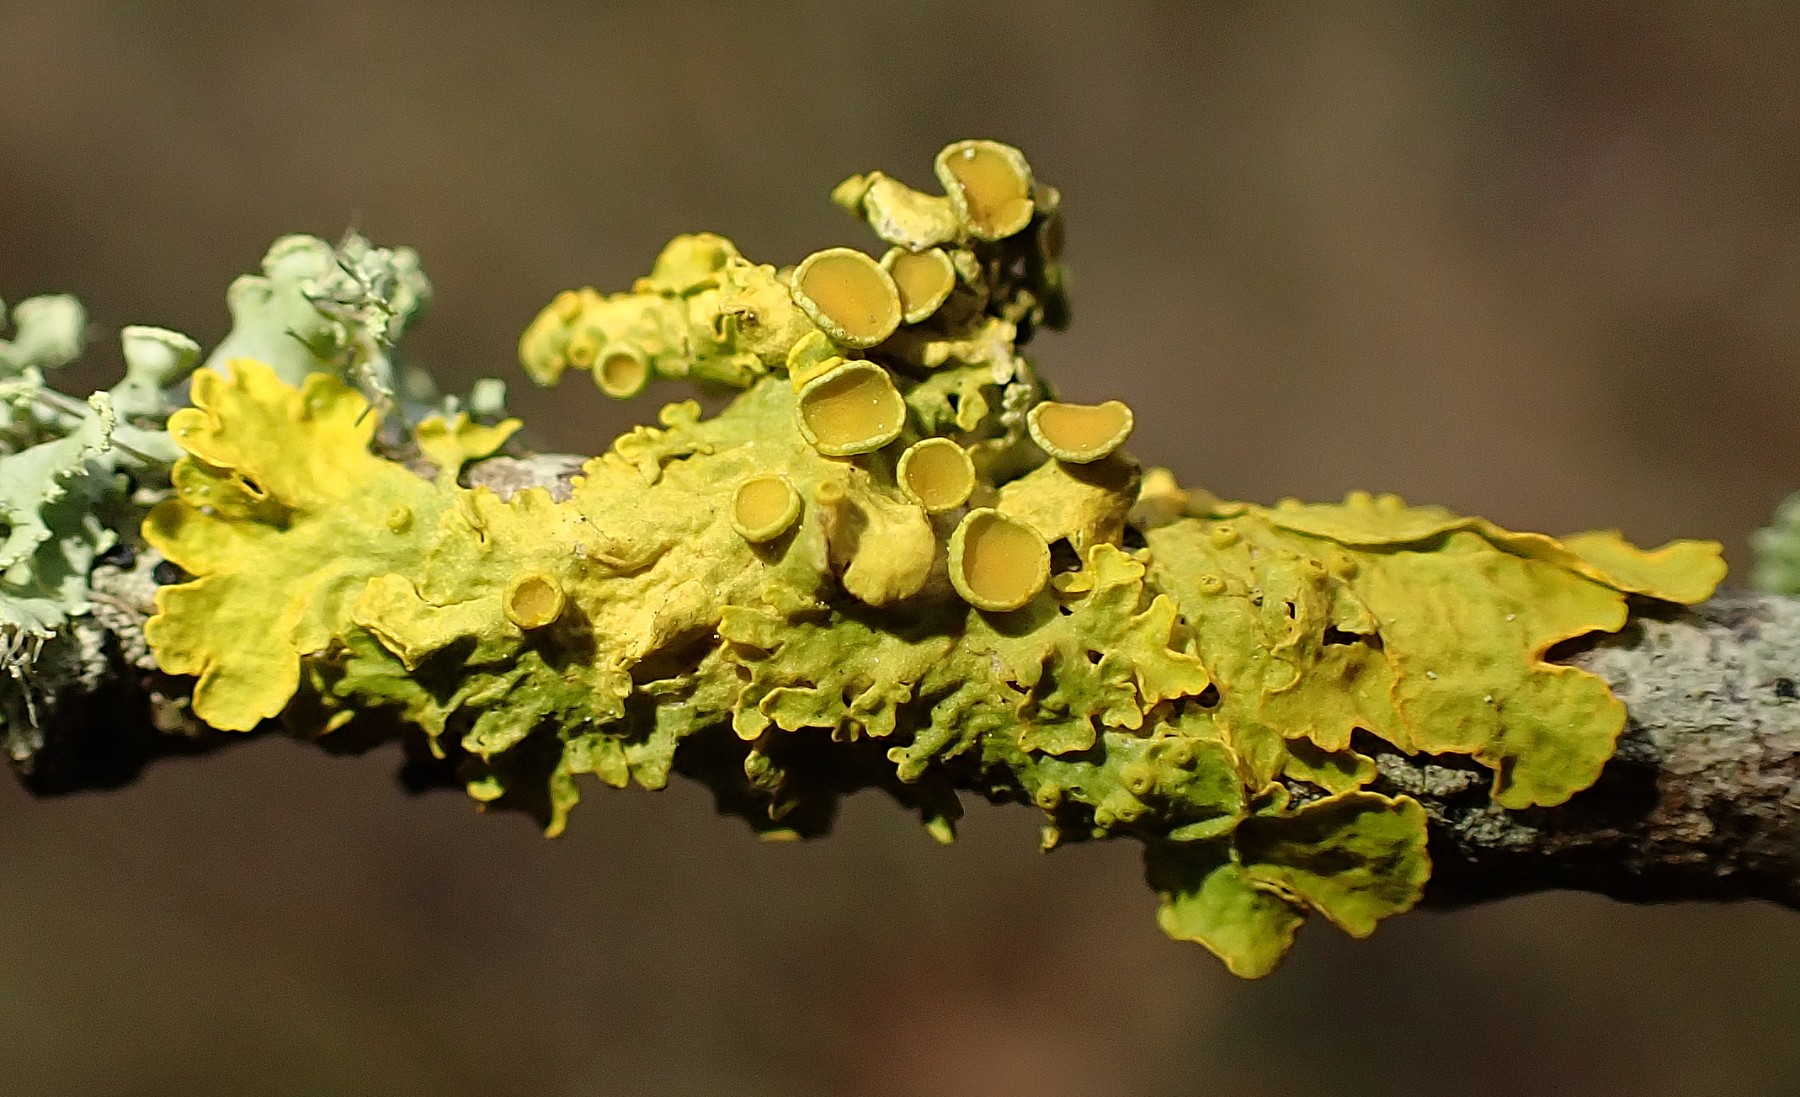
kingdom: Fungi
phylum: Ascomycota
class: Lecanoromycetes
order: Teloschistales
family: Teloschistaceae
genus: Xanthoria
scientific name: Xanthoria parietina
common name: almindelig væggelav
